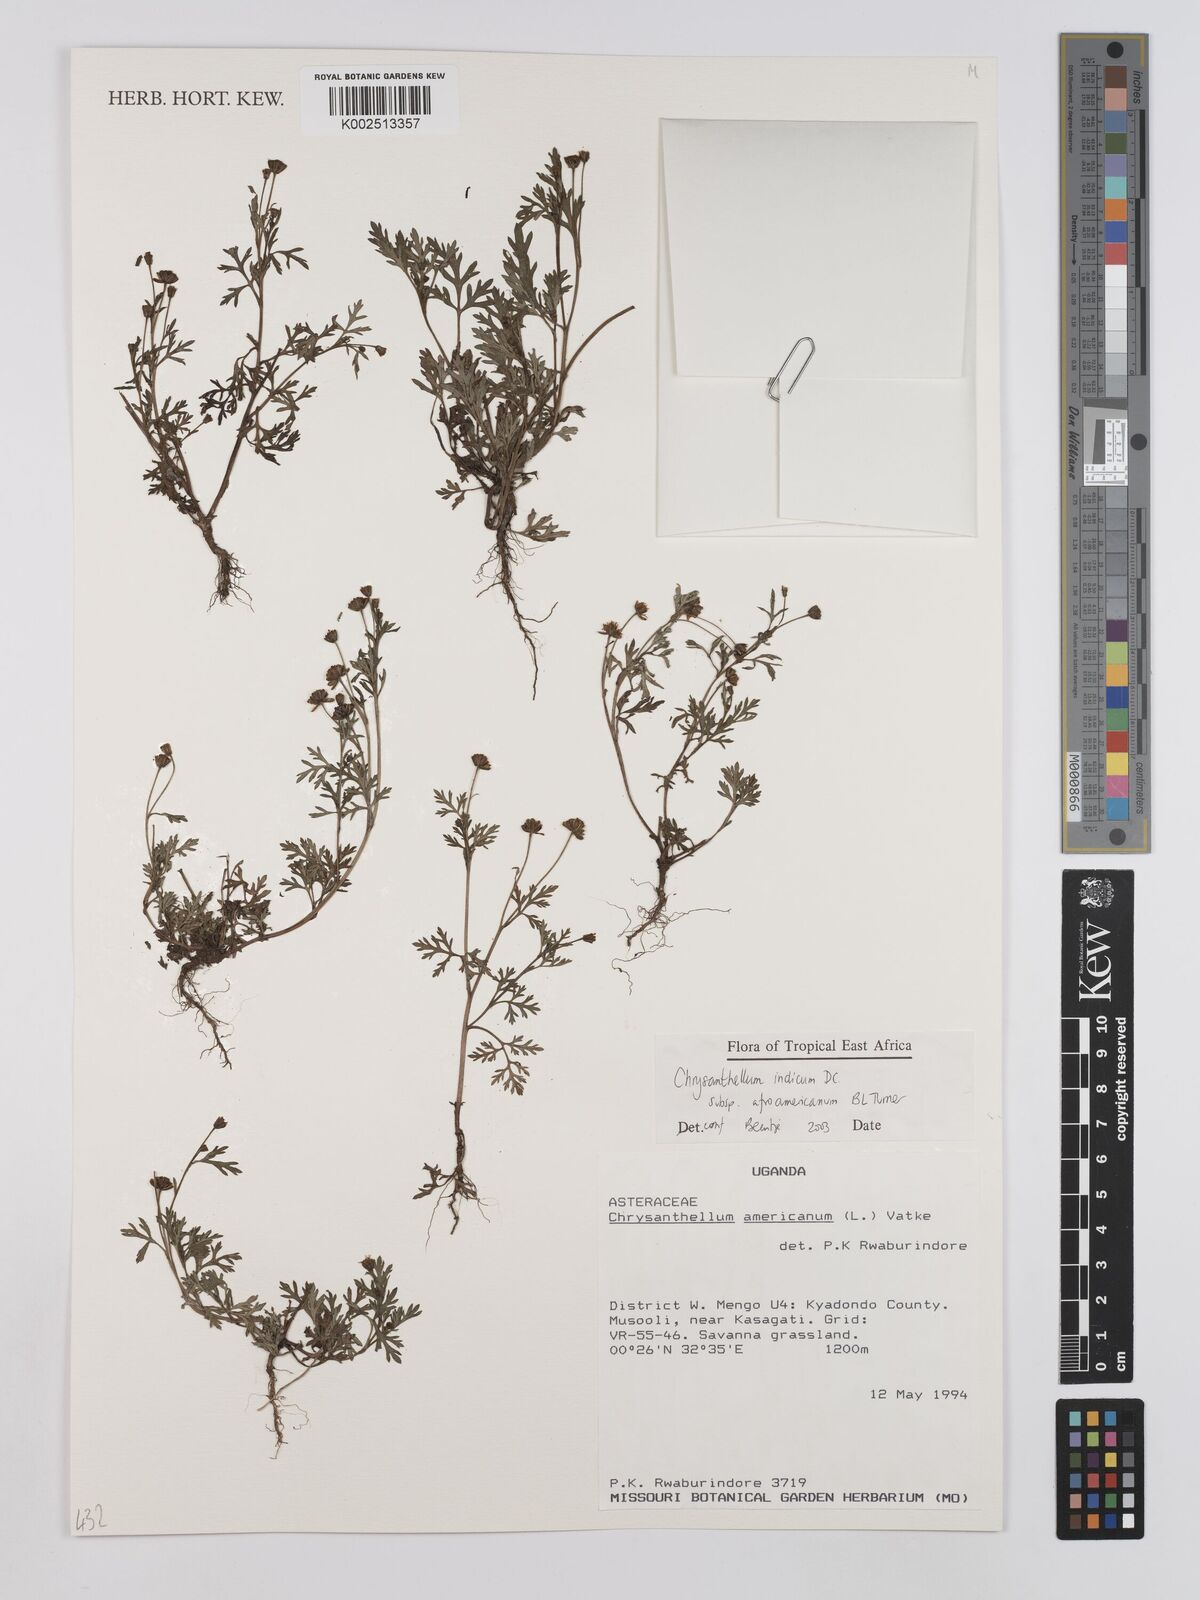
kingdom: Plantae
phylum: Tracheophyta
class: Magnoliopsida
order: Asterales
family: Asteraceae
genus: Chrysanthellum
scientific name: Chrysanthellum indicum
